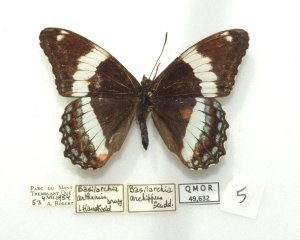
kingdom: Animalia
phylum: Arthropoda
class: Insecta
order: Lepidoptera
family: Nymphalidae
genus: Limenitis
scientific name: Limenitis arthemis
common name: Red-spotted Admiral
